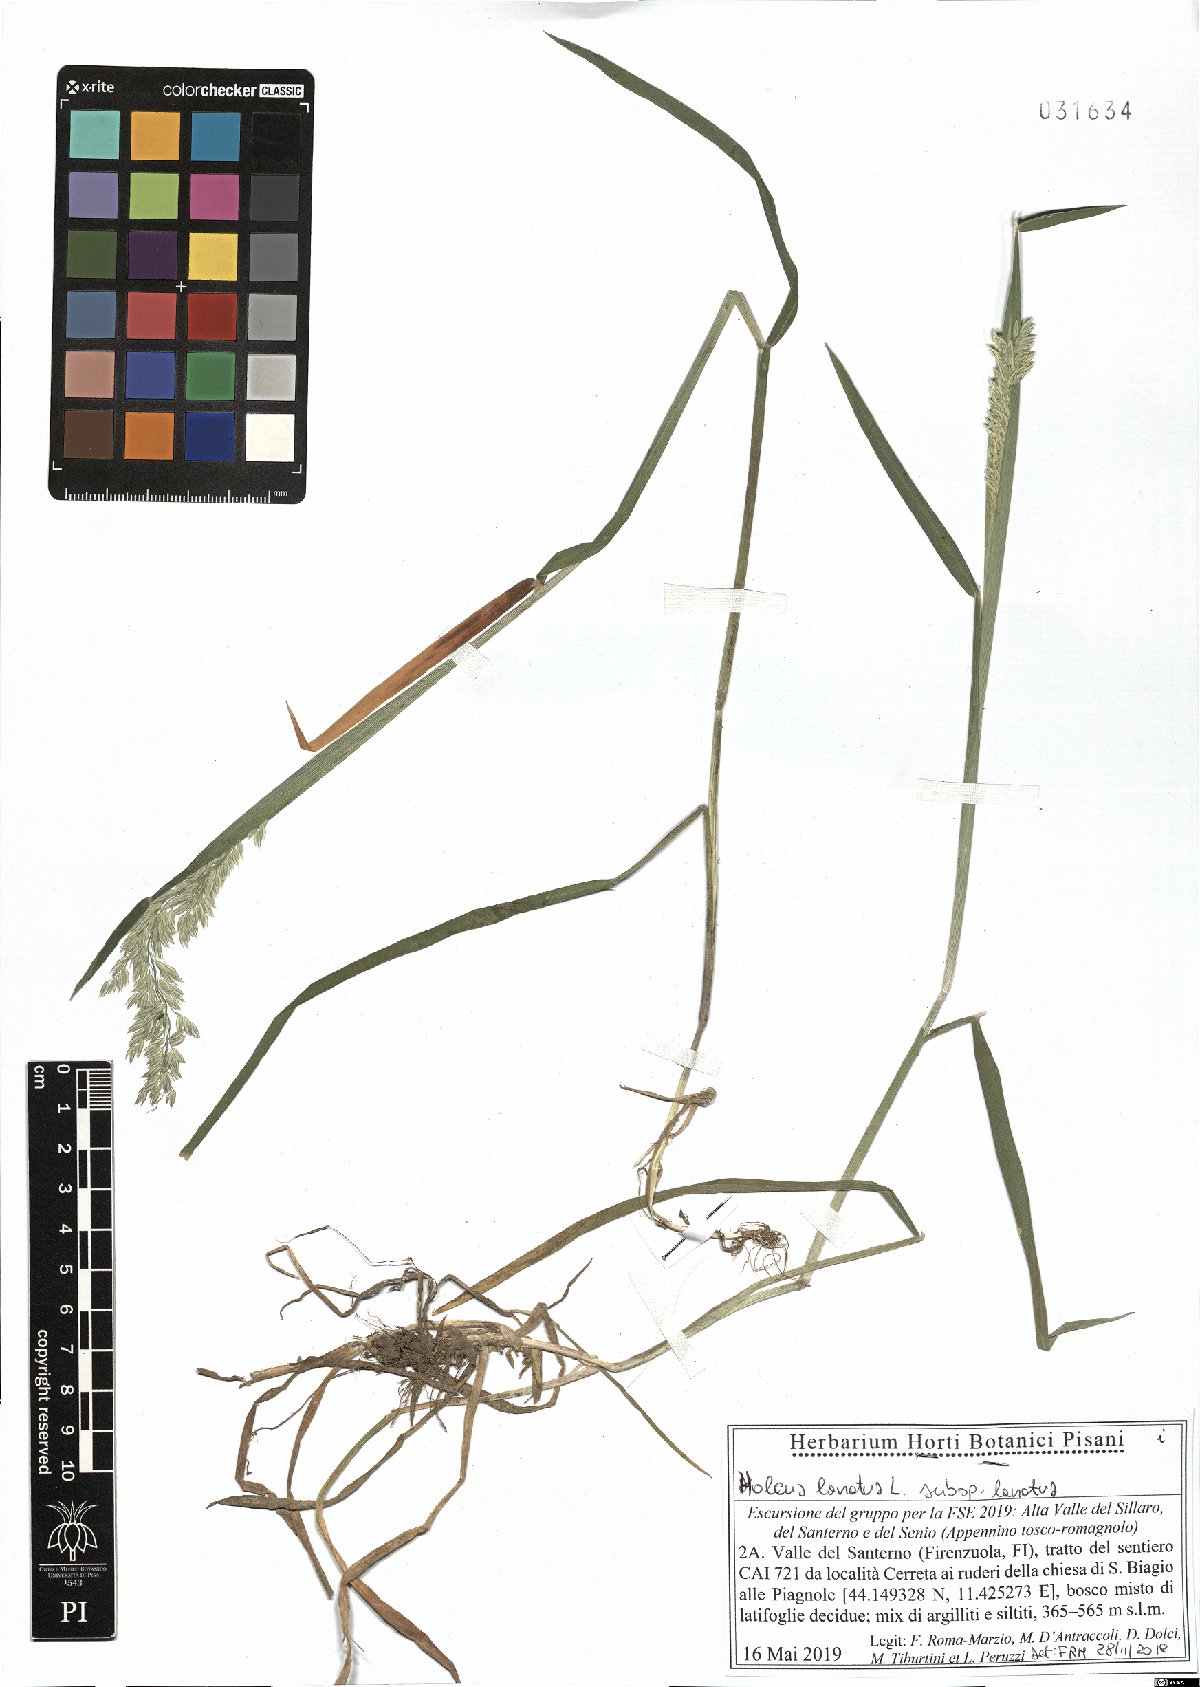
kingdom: Plantae
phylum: Tracheophyta
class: Liliopsida
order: Poales
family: Poaceae
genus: Holcus
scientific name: Holcus lanatus
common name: Yorkshire-fog
